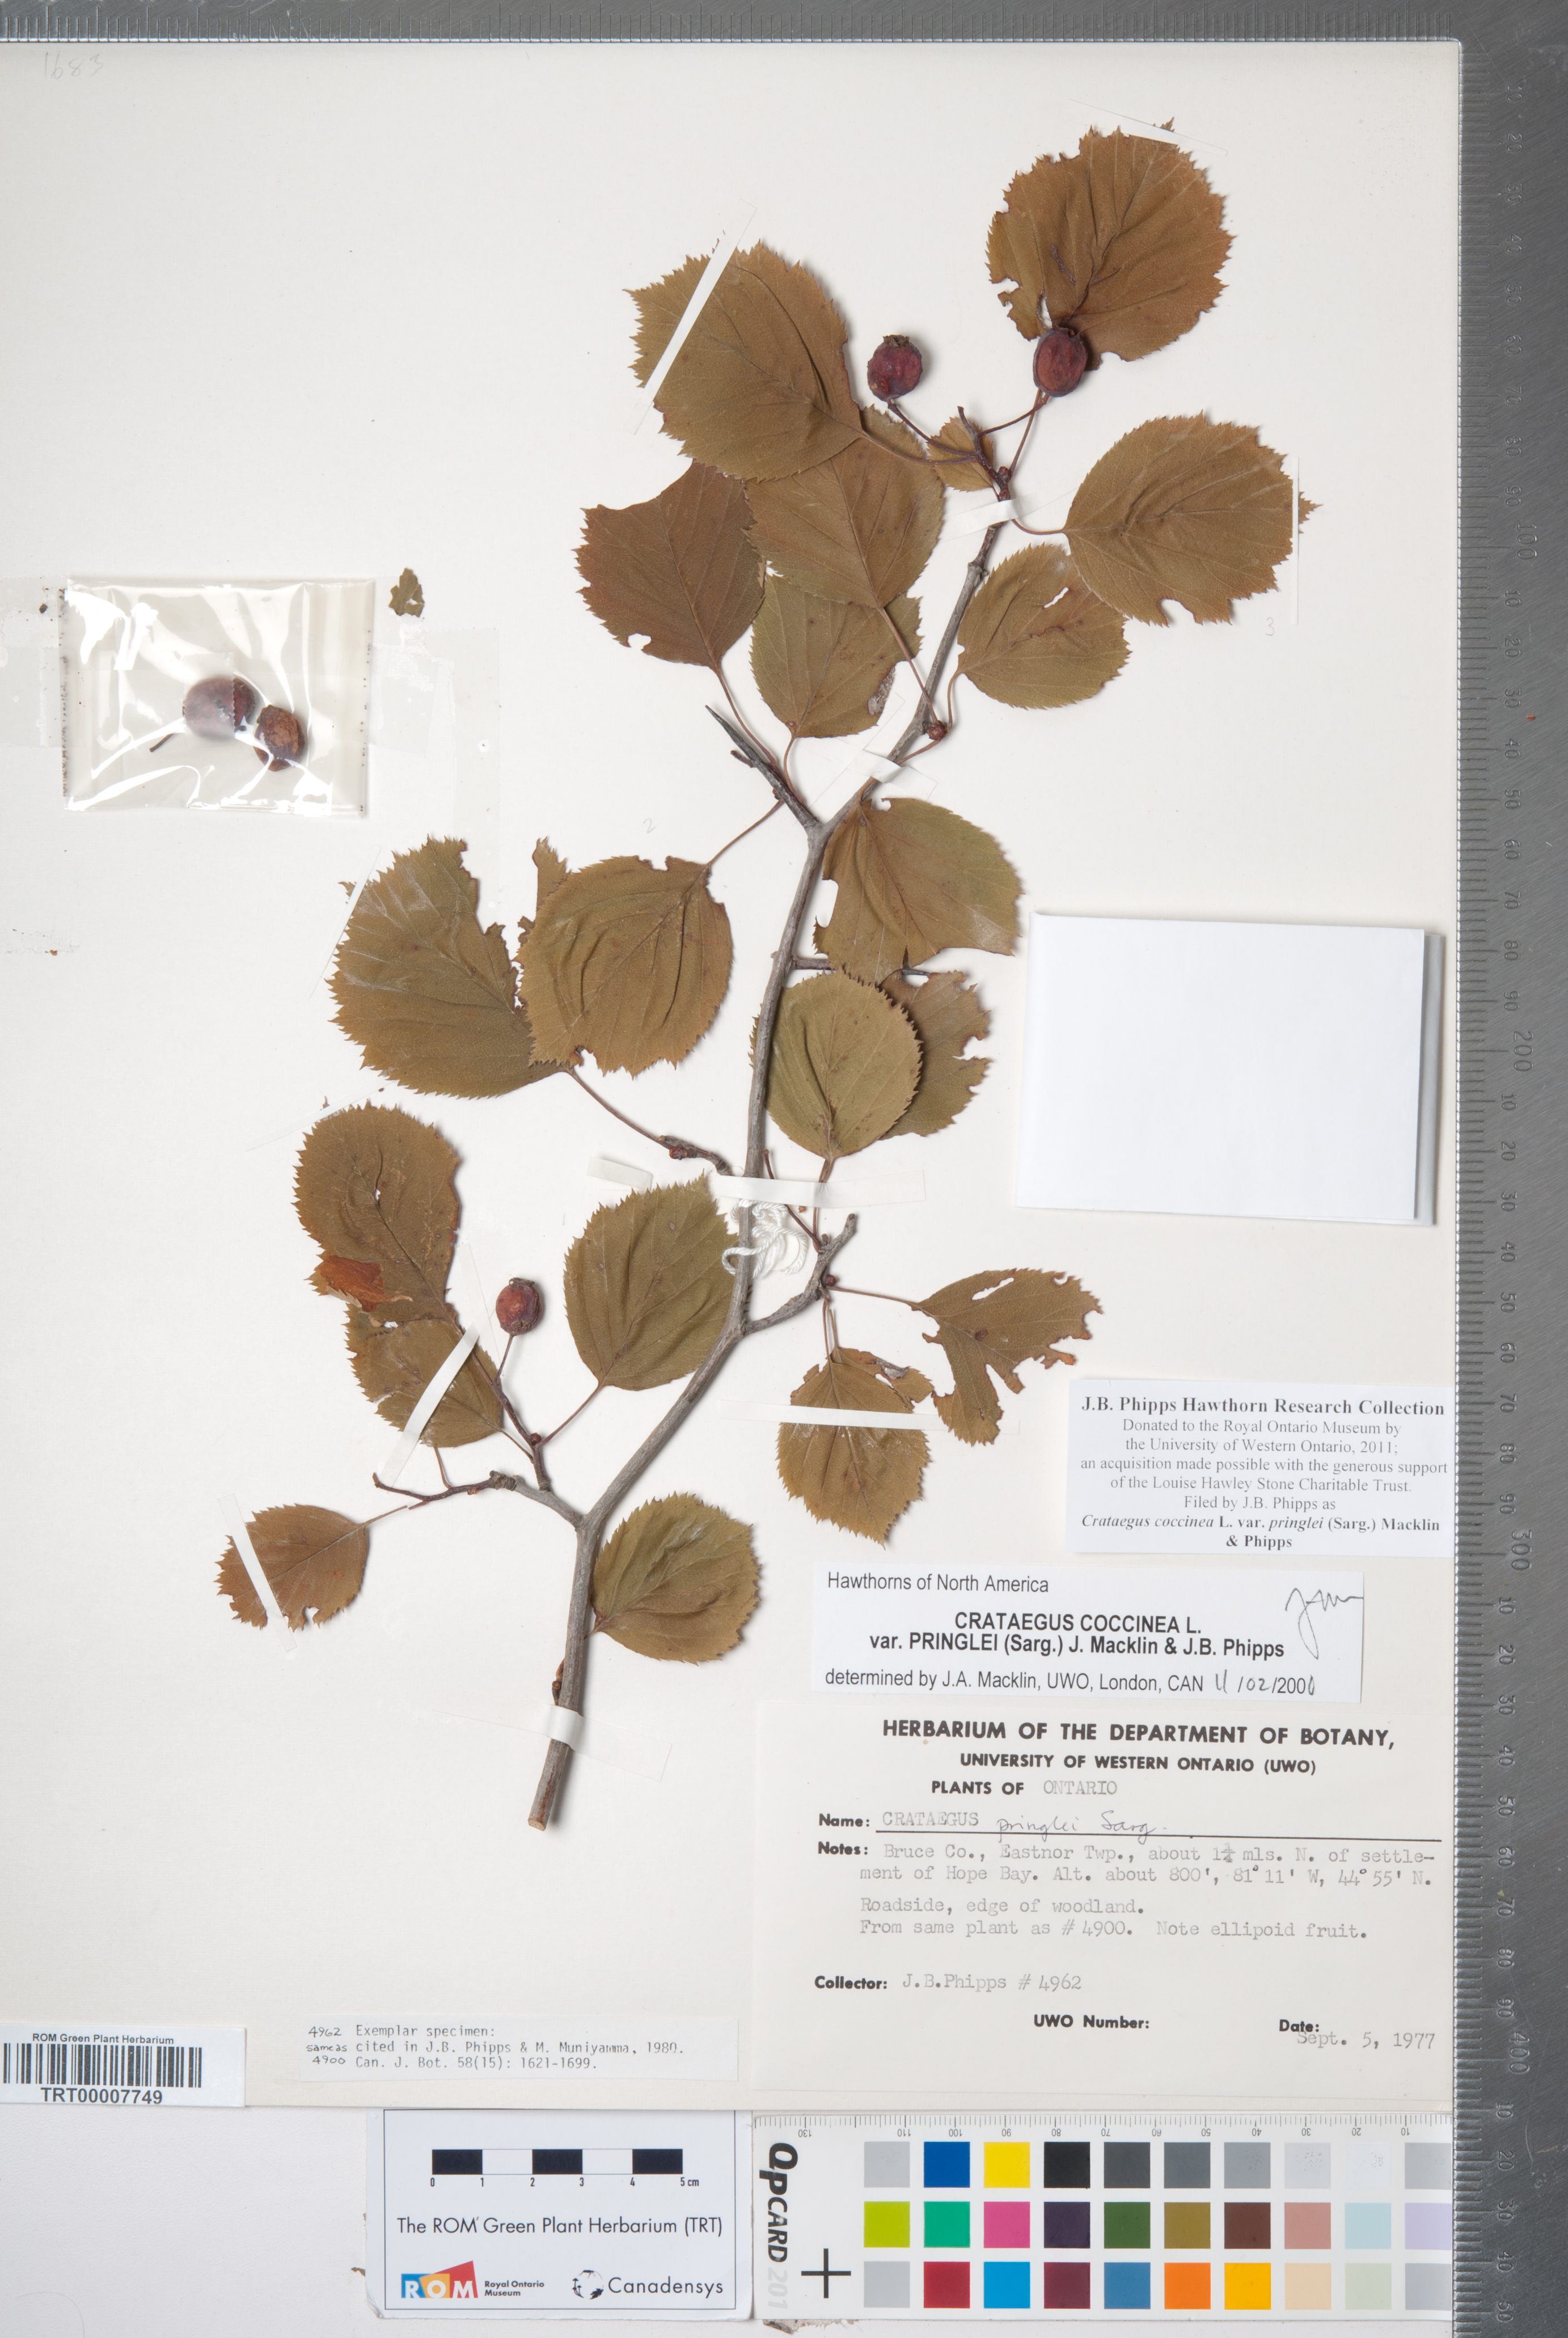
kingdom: Plantae
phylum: Tracheophyta
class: Magnoliopsida
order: Rosales
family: Rosaceae
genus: Crataegus
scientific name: Crataegus coccinea
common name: Scarlet hawthorn
